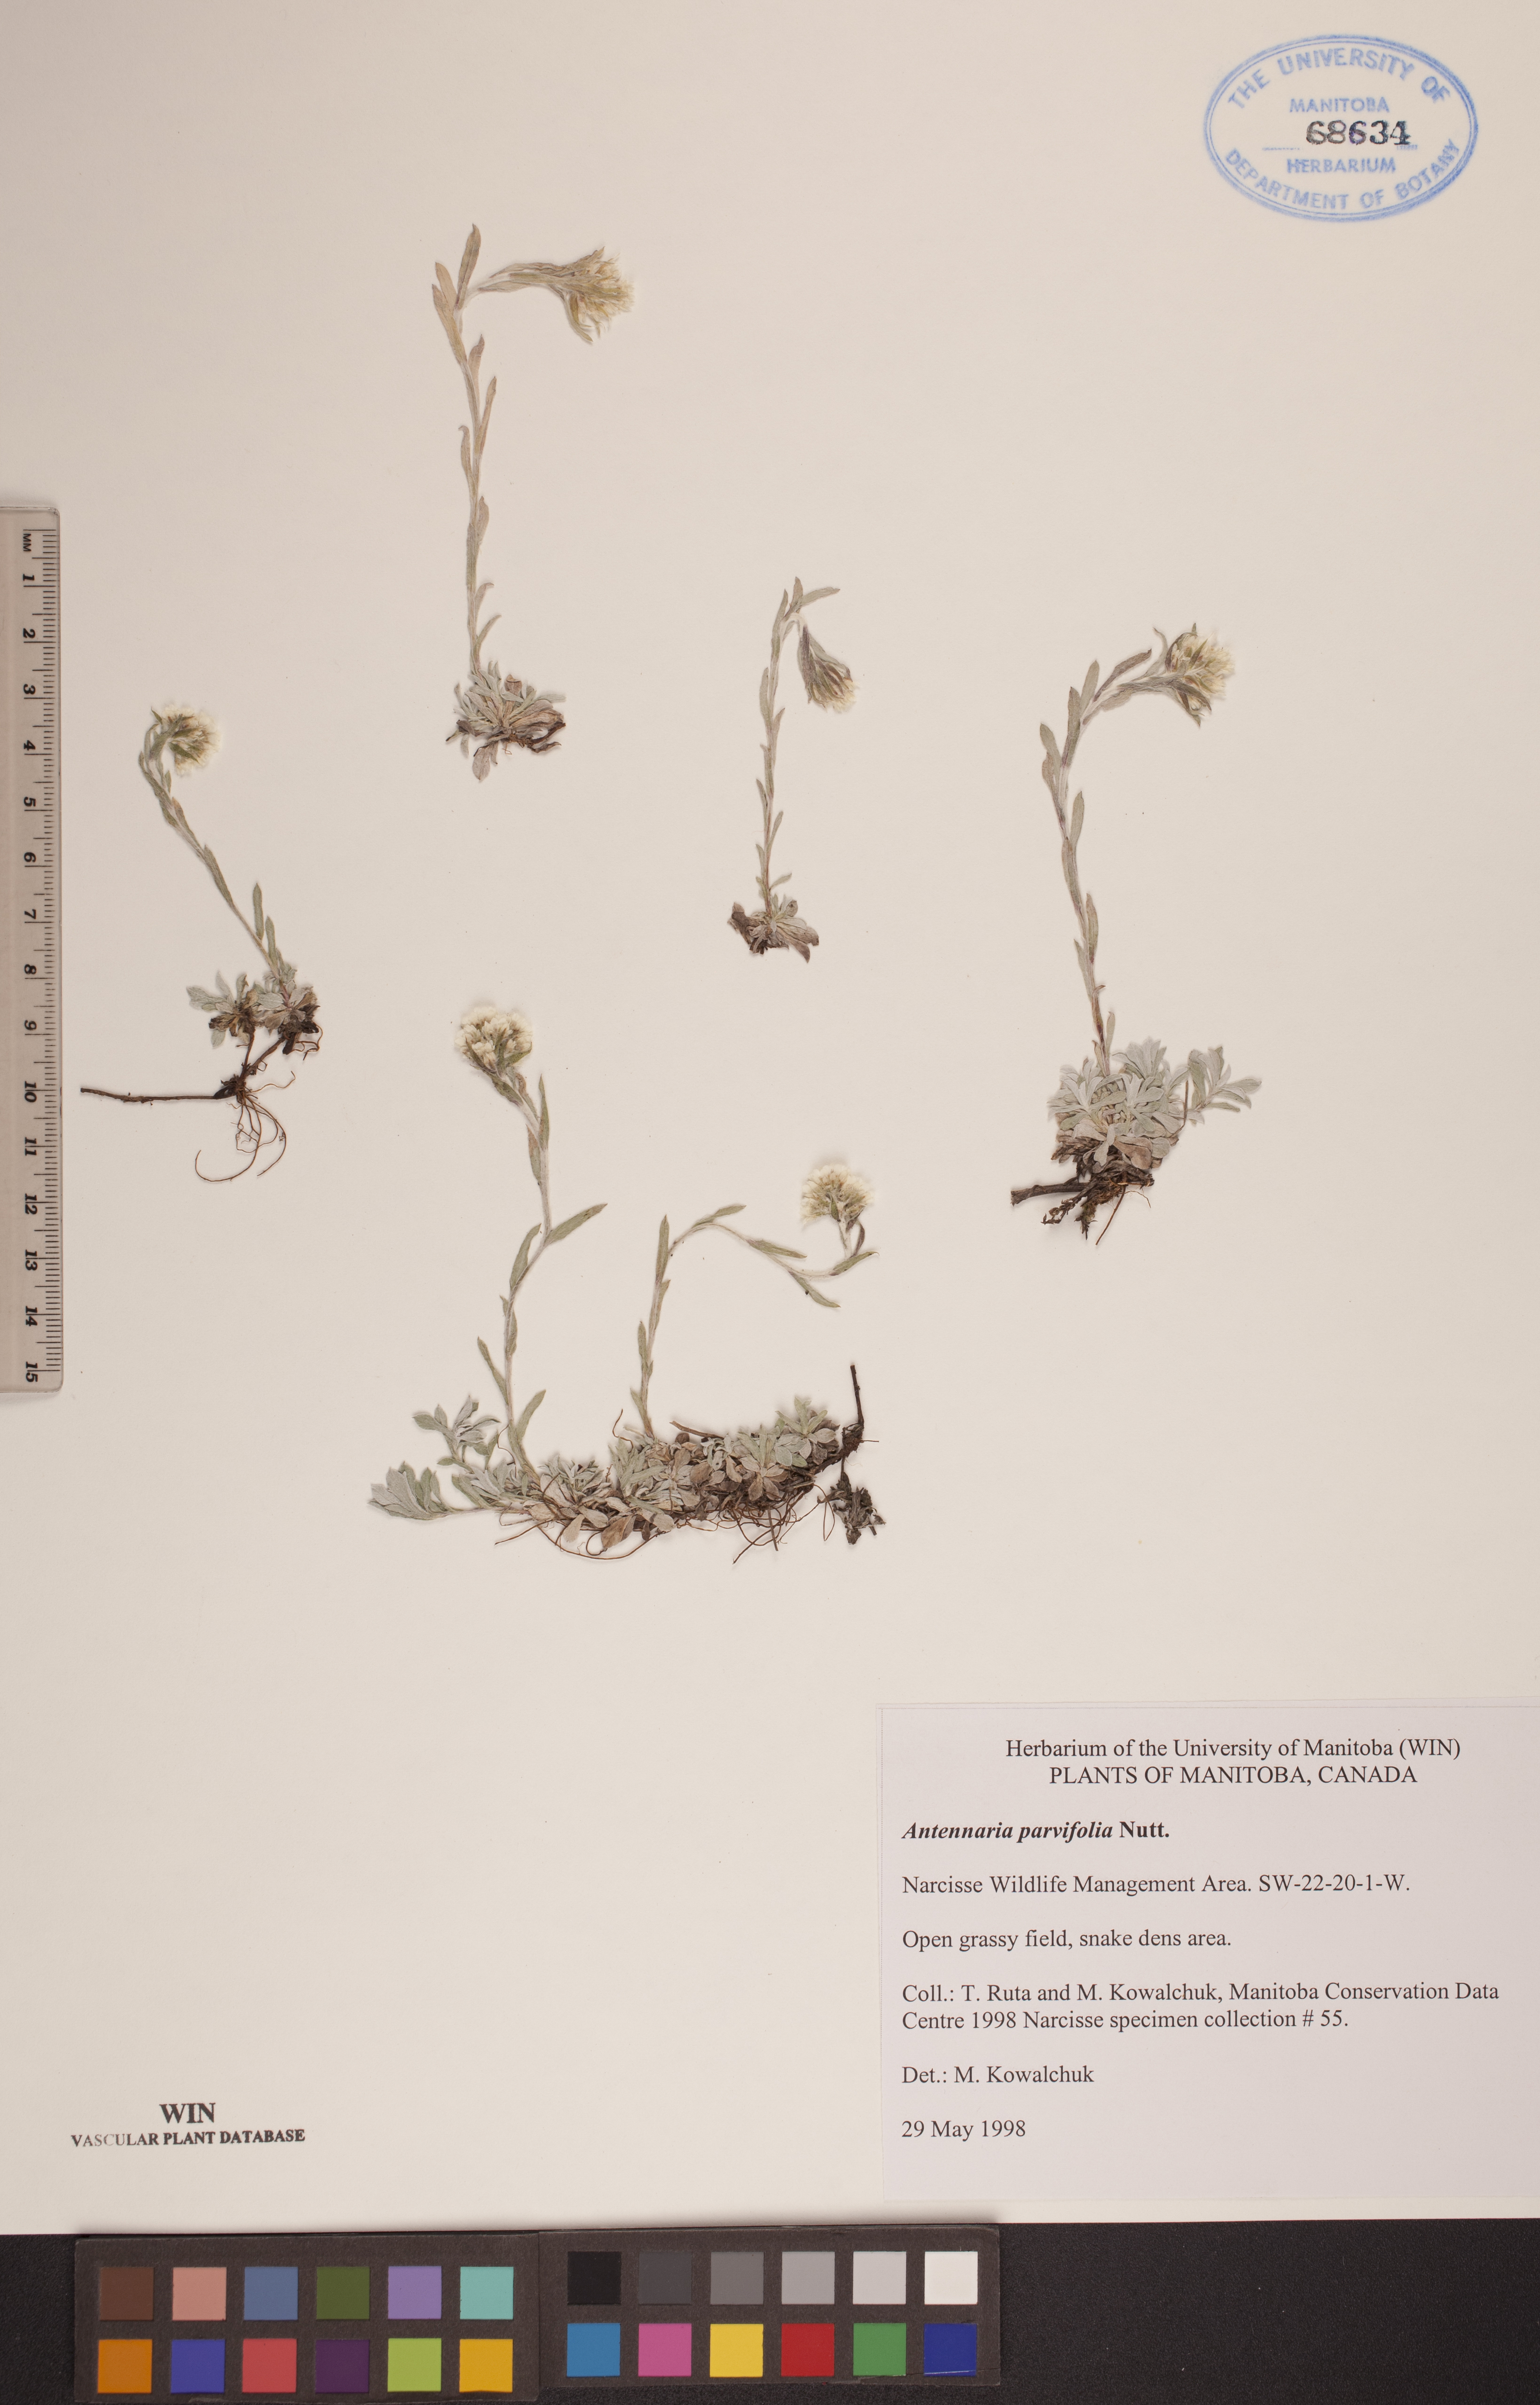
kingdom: Plantae
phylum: Tracheophyta
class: Magnoliopsida
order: Asterales
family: Asteraceae
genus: Antennaria
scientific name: Antennaria parvifolia
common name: Nuttall's pussytoes
